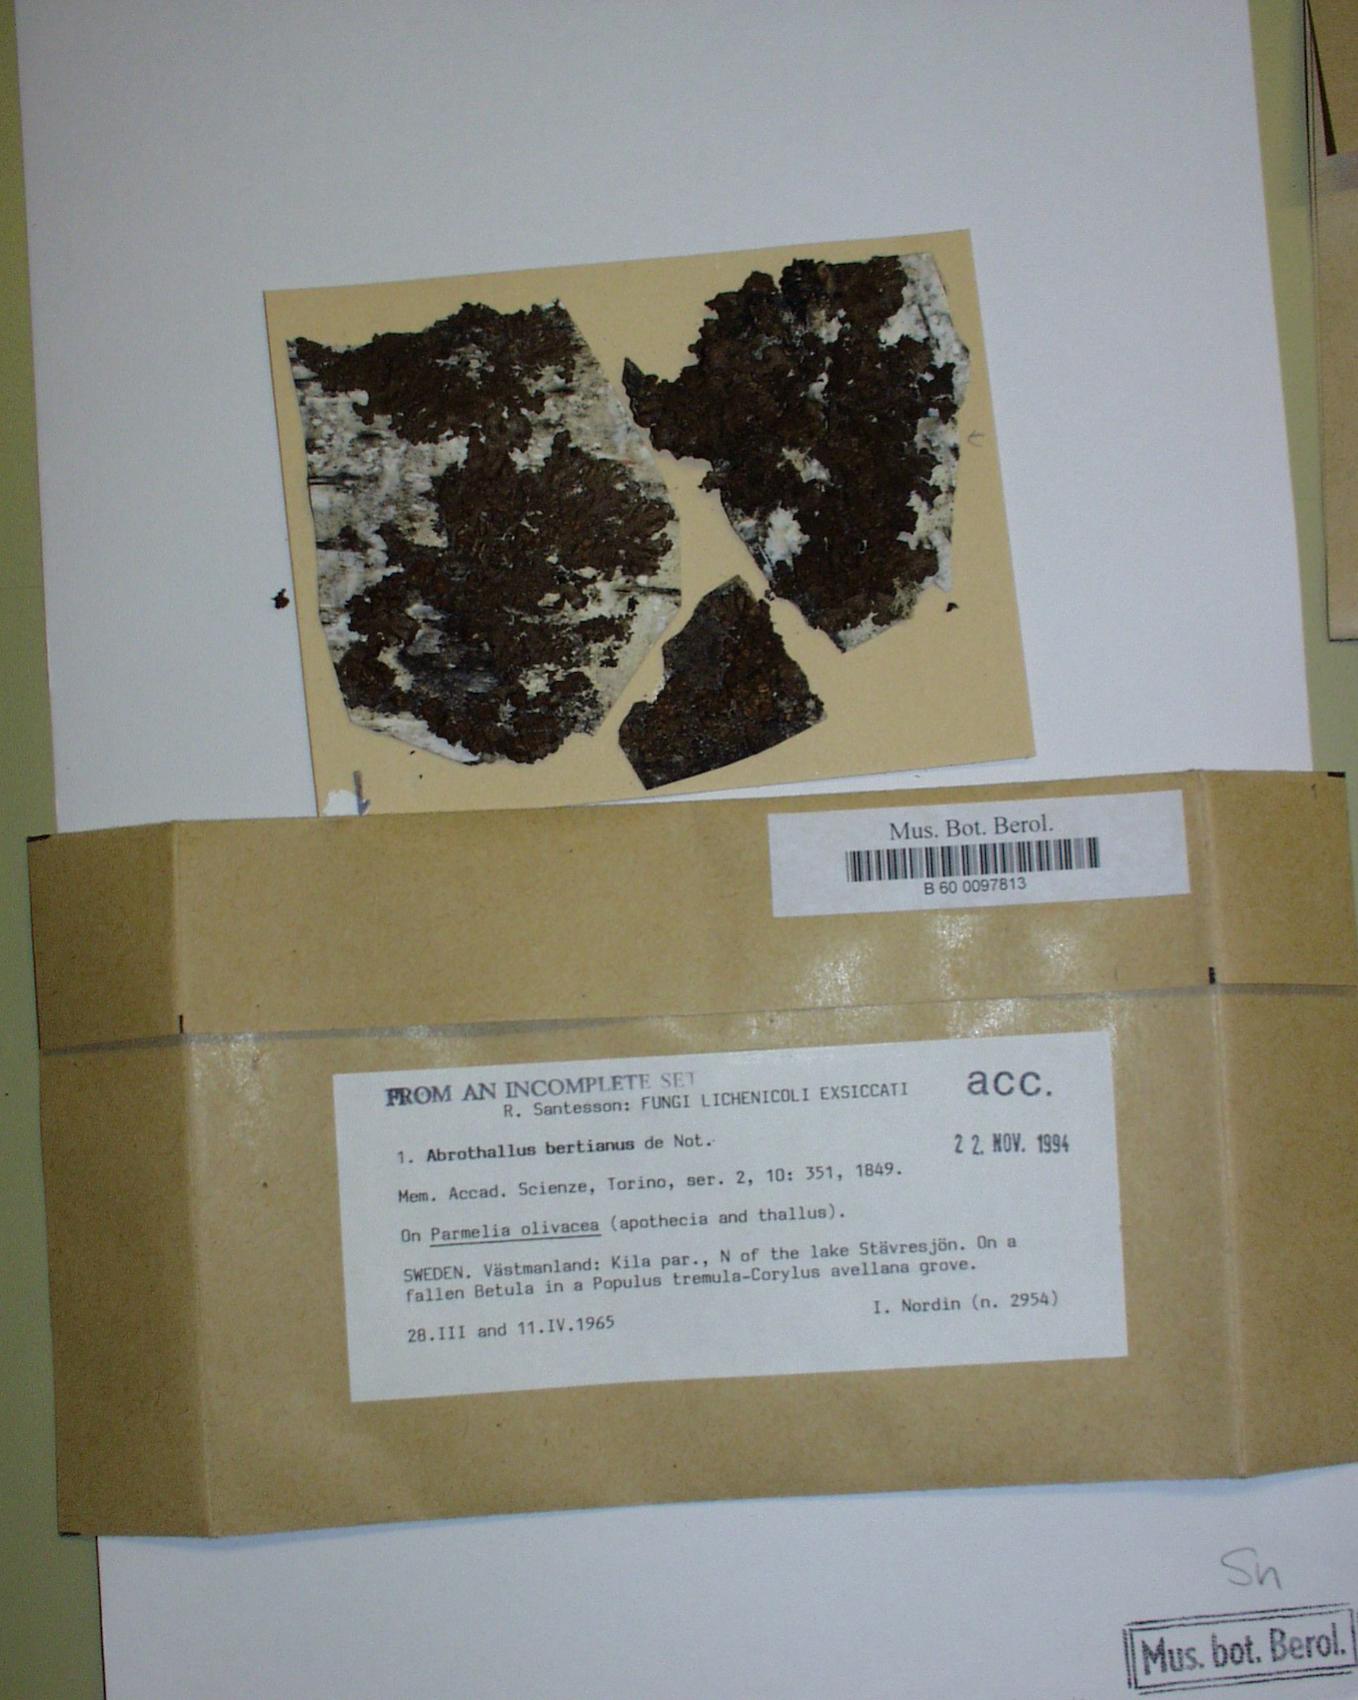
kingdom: Fungi
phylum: Ascomycota
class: Dothideomycetes
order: Abrothallales
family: Abrothallaceae
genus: Abrothallus
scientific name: Abrothallus parmeliarum
